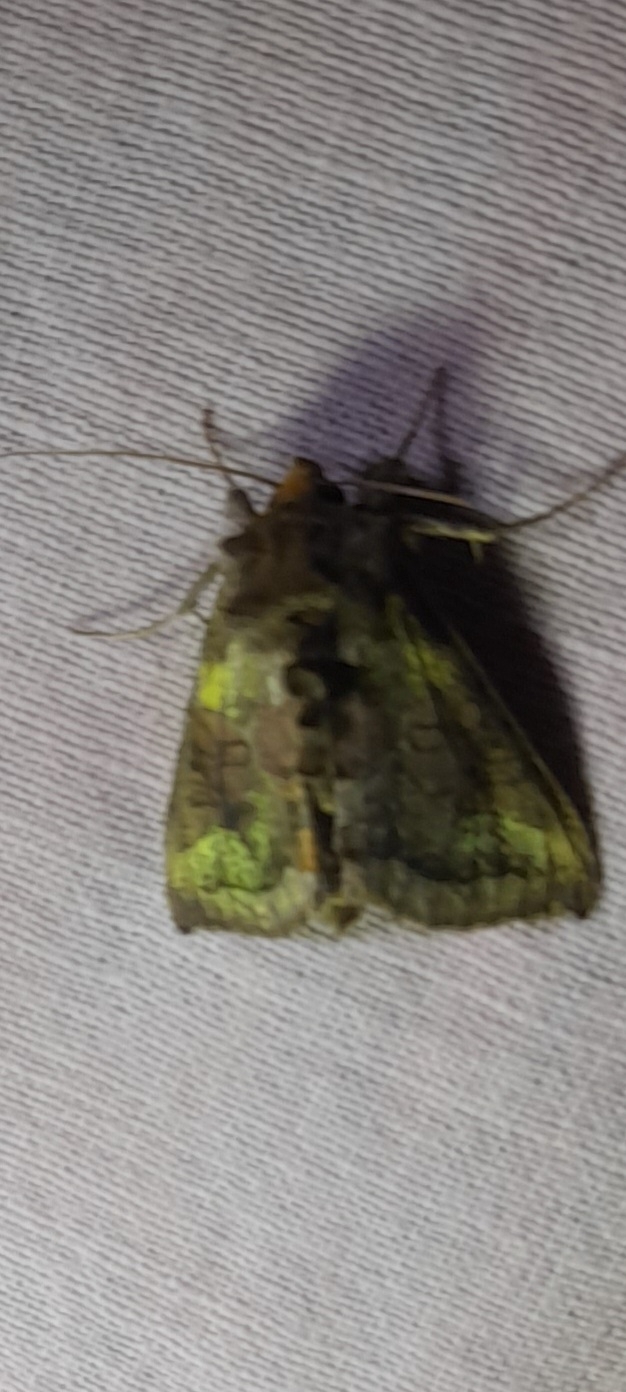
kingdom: Animalia
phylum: Arthropoda
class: Insecta
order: Lepidoptera
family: Noctuidae
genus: Diachrysia
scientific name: Diachrysia chrysitis
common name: Messingugle
